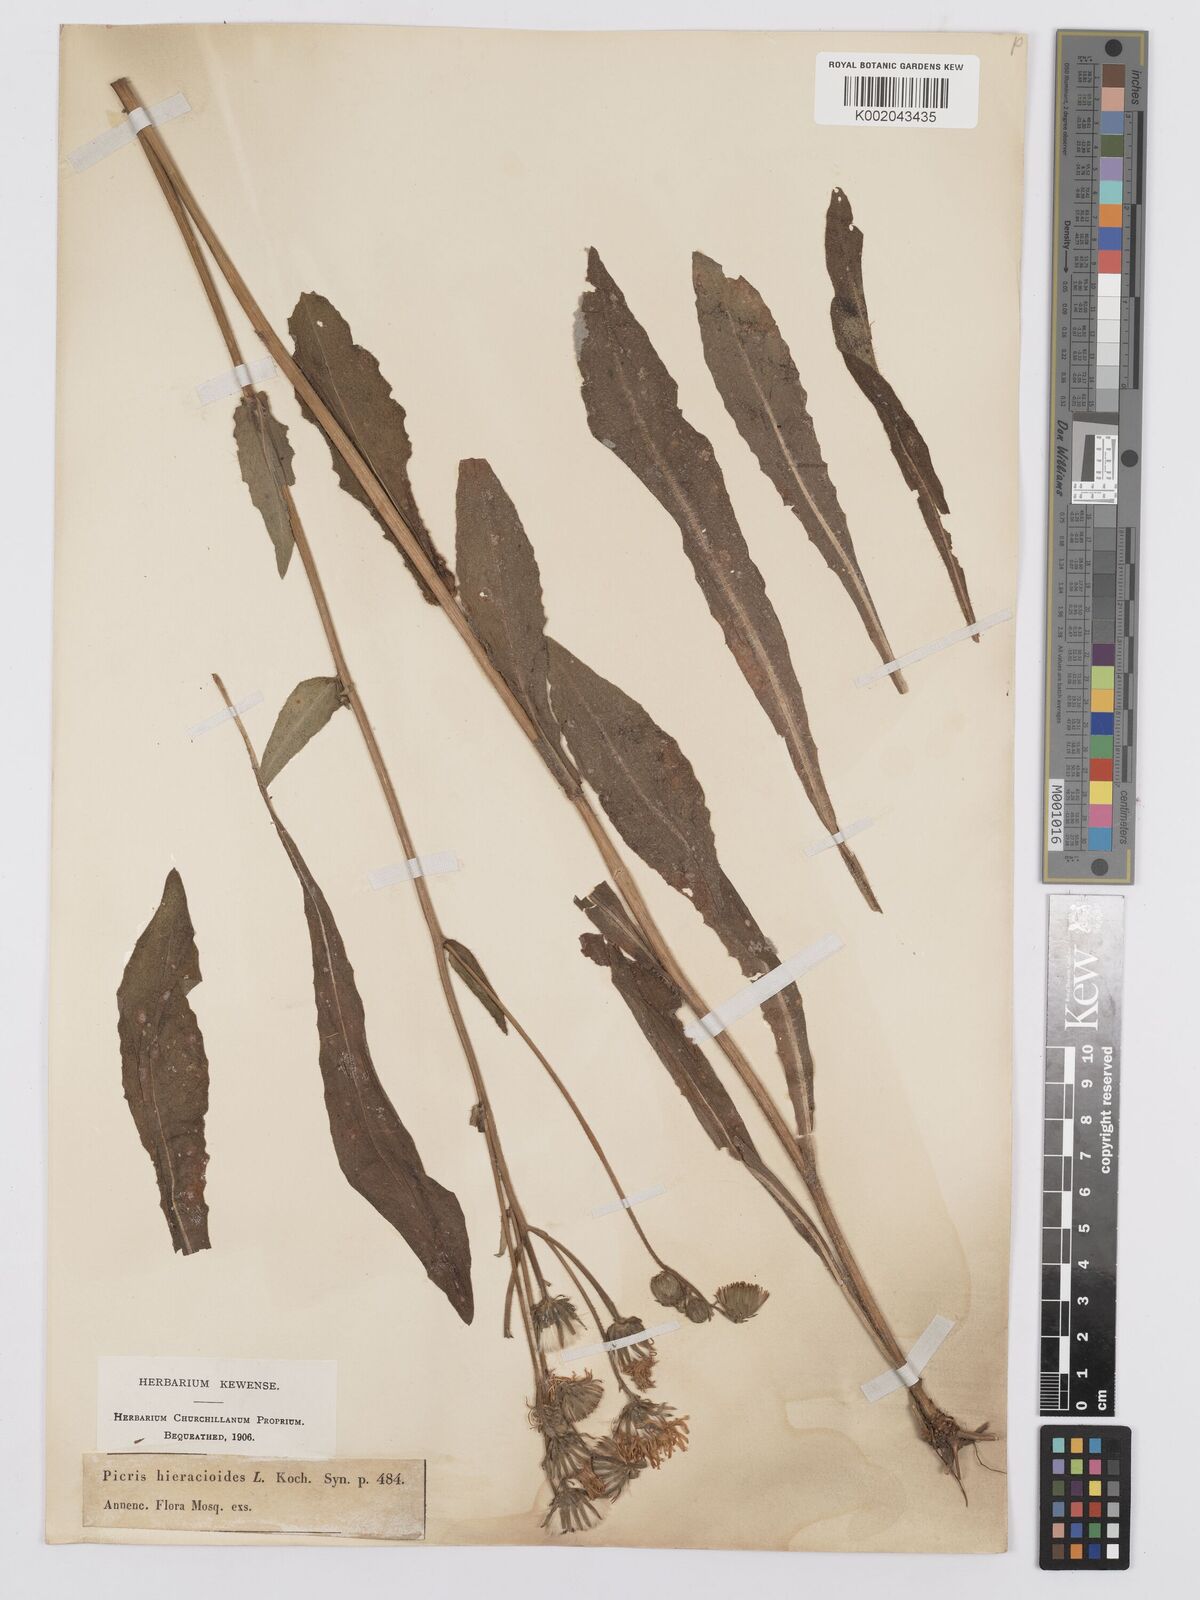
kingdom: Plantae
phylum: Tracheophyta
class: Magnoliopsida
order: Asterales
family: Asteraceae
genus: Picris
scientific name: Picris hieracioides
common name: Hawkweed oxtongue
